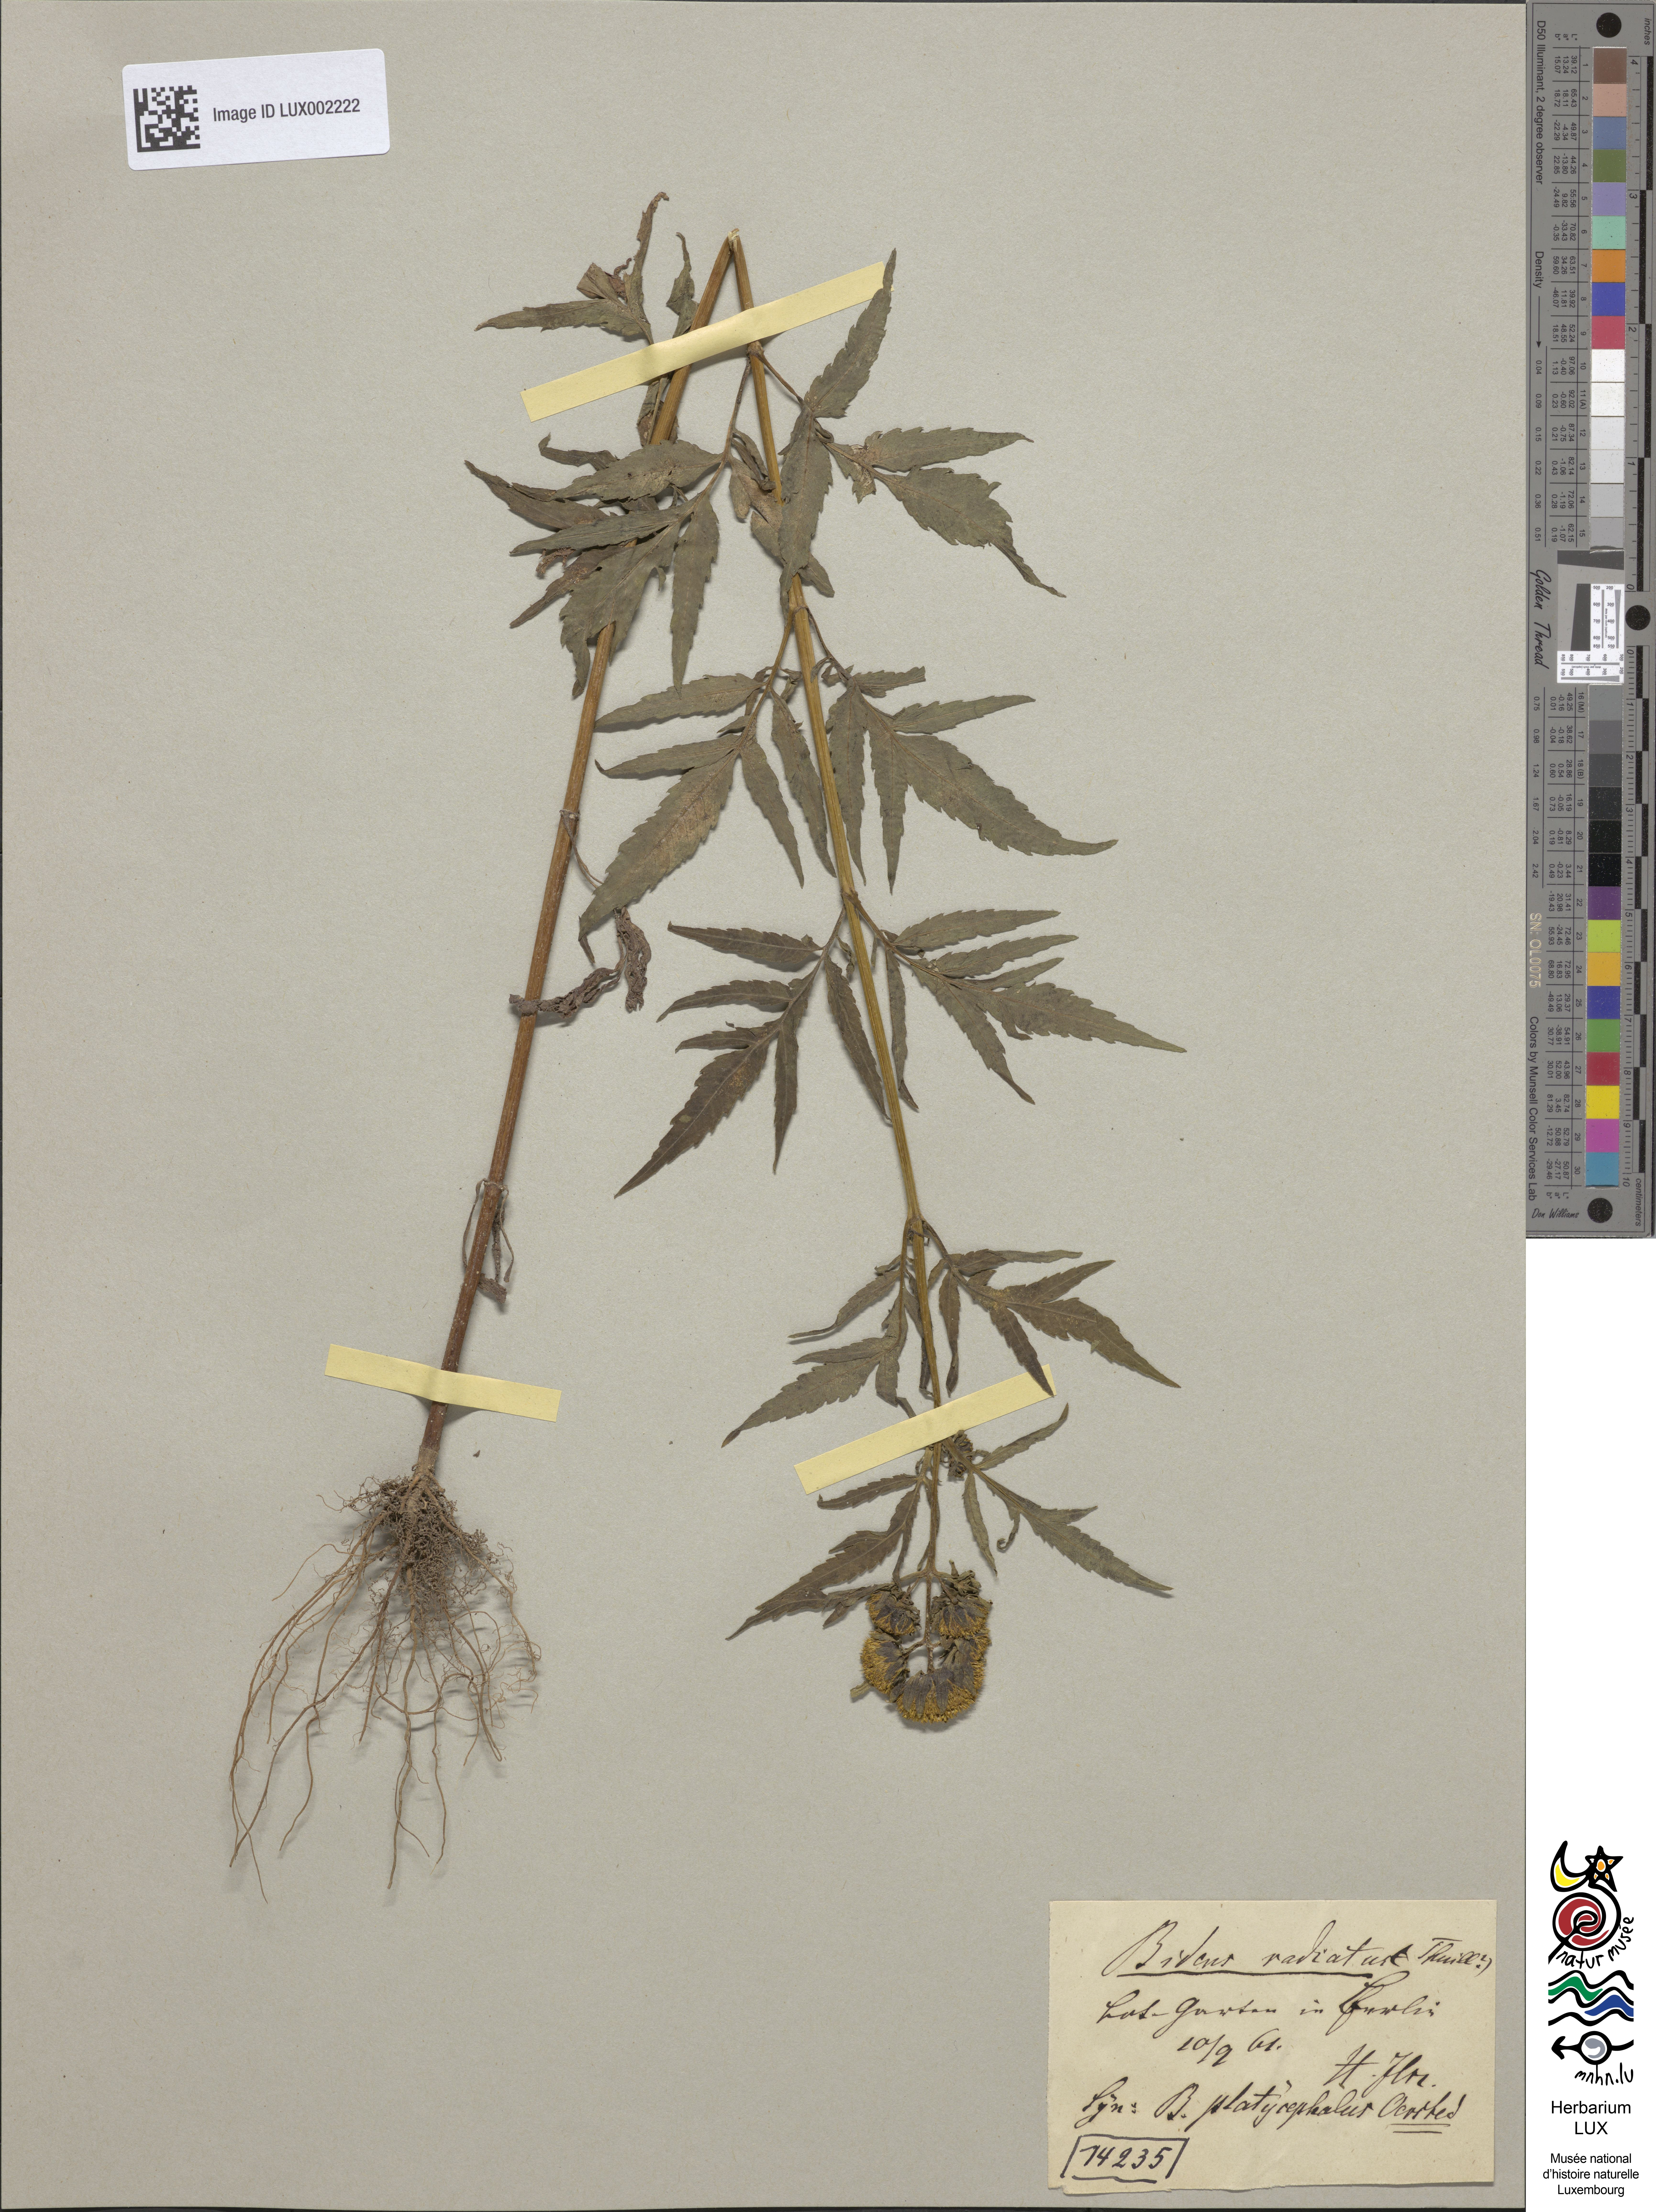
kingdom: Plantae
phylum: Tracheophyta
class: Magnoliopsida
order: Asterales
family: Asteraceae
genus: Bidens
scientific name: Bidens radiata
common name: Radiating bur-marigold
